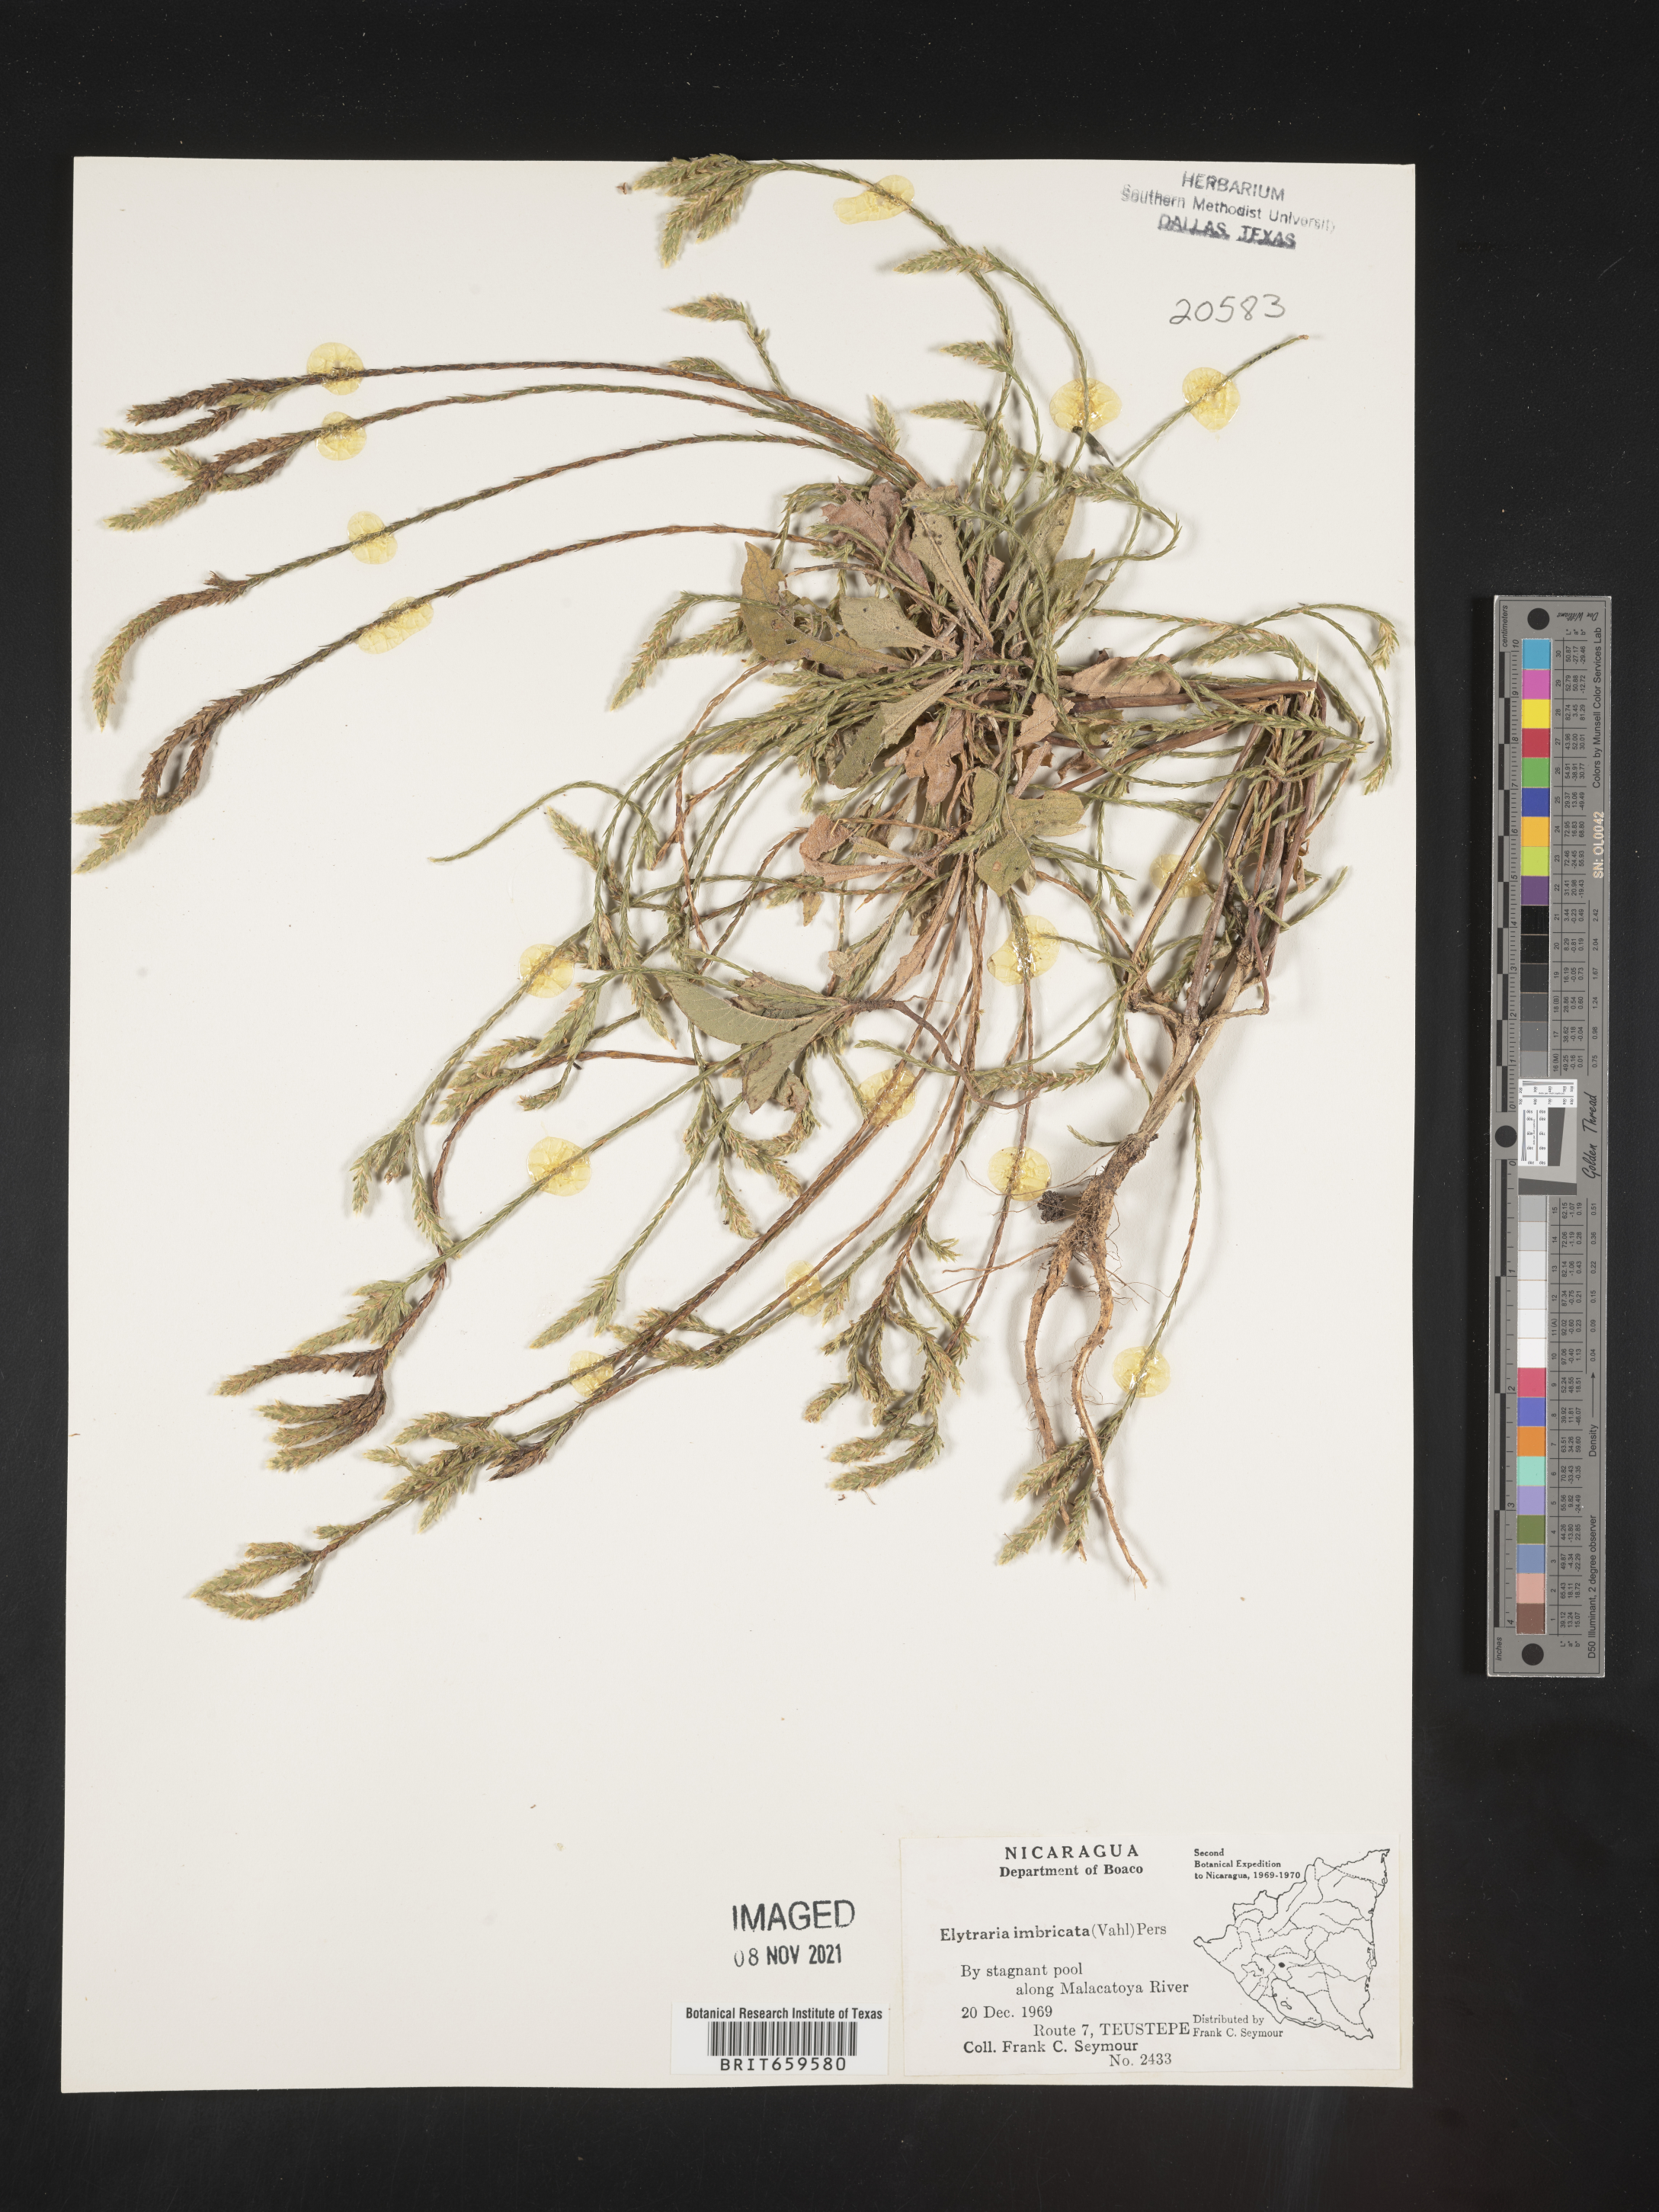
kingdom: Plantae
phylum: Tracheophyta
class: Magnoliopsida
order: Lamiales
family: Acanthaceae
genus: Elytraria
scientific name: Elytraria imbricata
